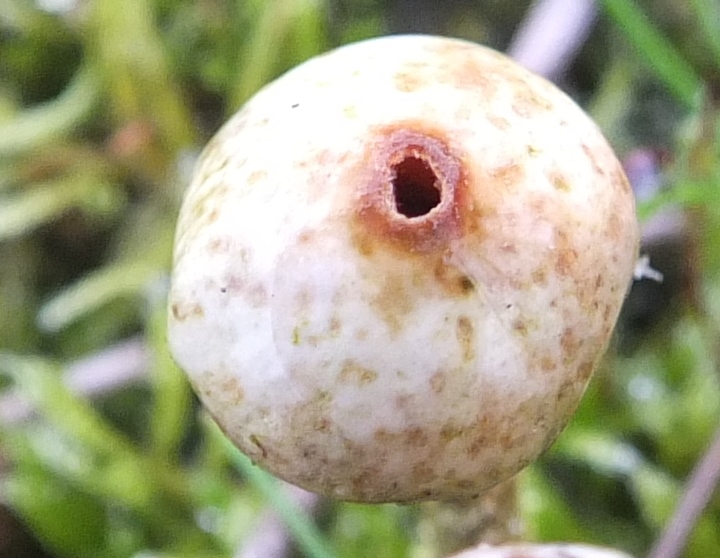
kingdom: Fungi
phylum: Basidiomycota
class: Agaricomycetes
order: Agaricales
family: Agaricaceae
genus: Tulostoma
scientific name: Tulostoma brumale
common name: vinter-stilkbovist
